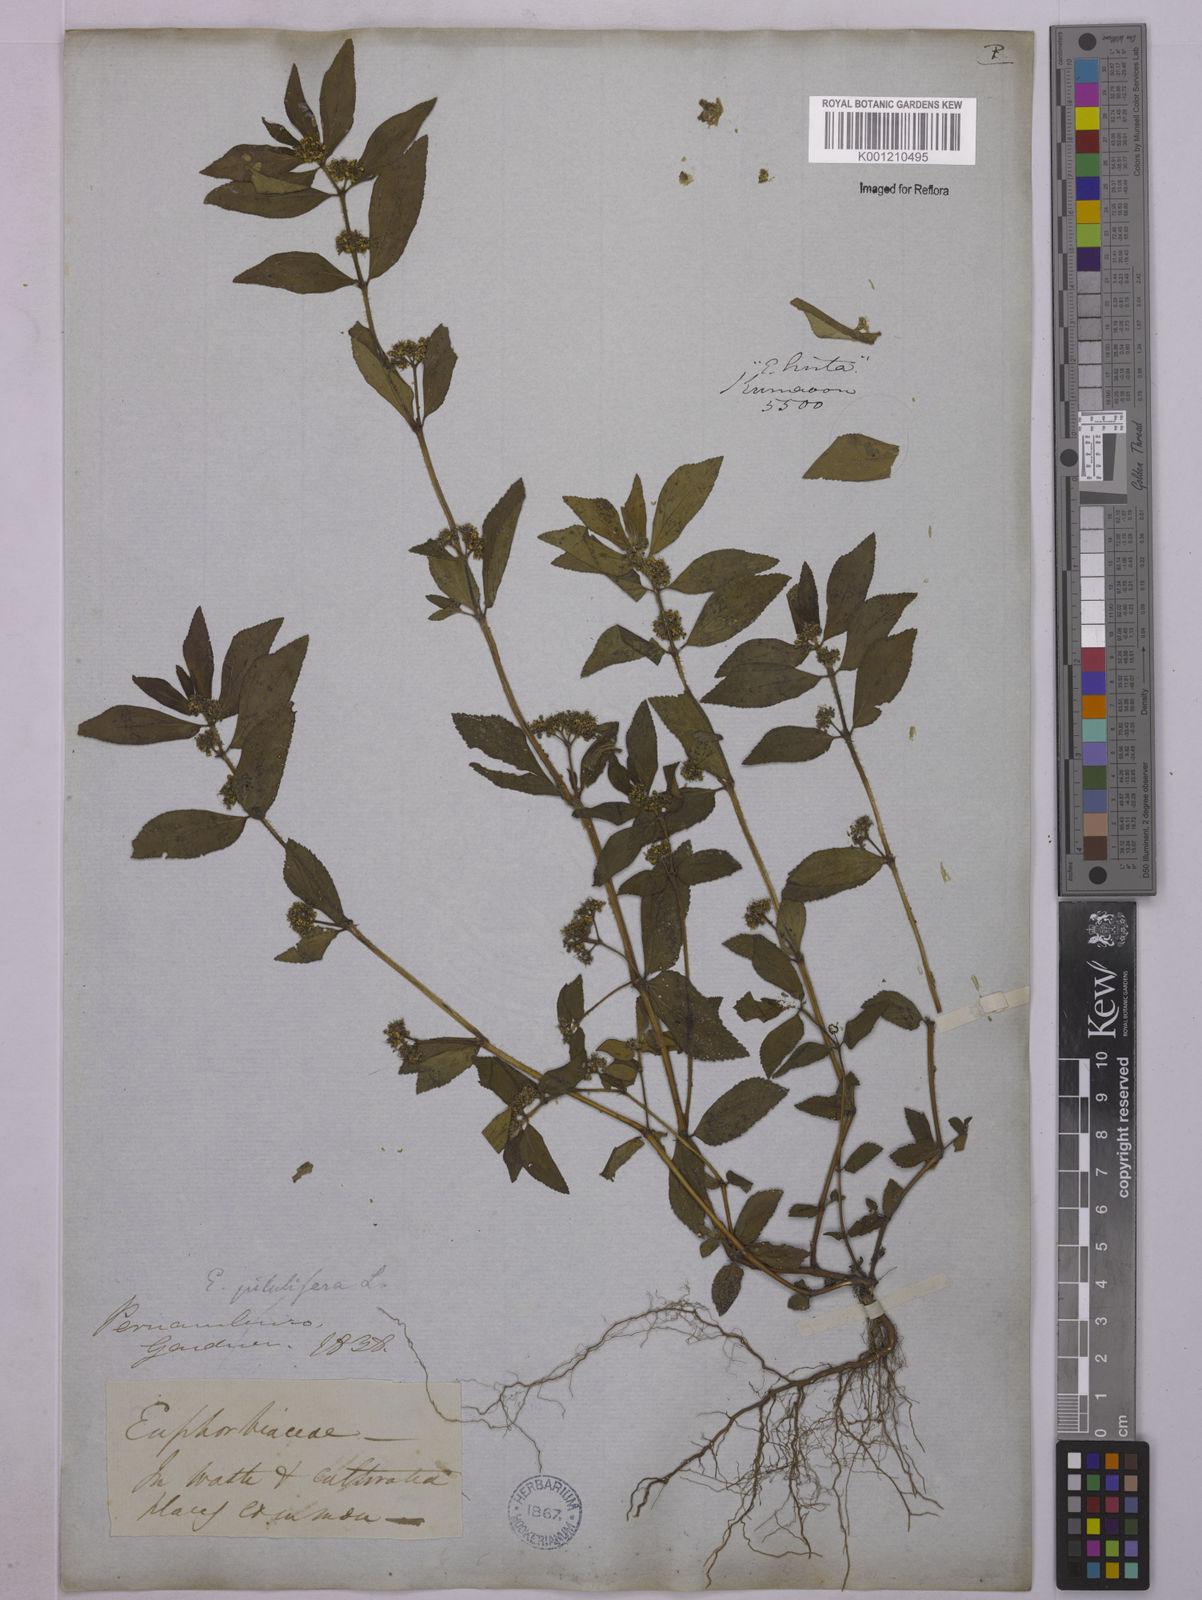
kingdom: Plantae
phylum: Tracheophyta
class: Magnoliopsida
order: Malpighiales
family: Euphorbiaceae
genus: Euphorbia
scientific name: Euphorbia hirta
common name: Pillpod sandmat
